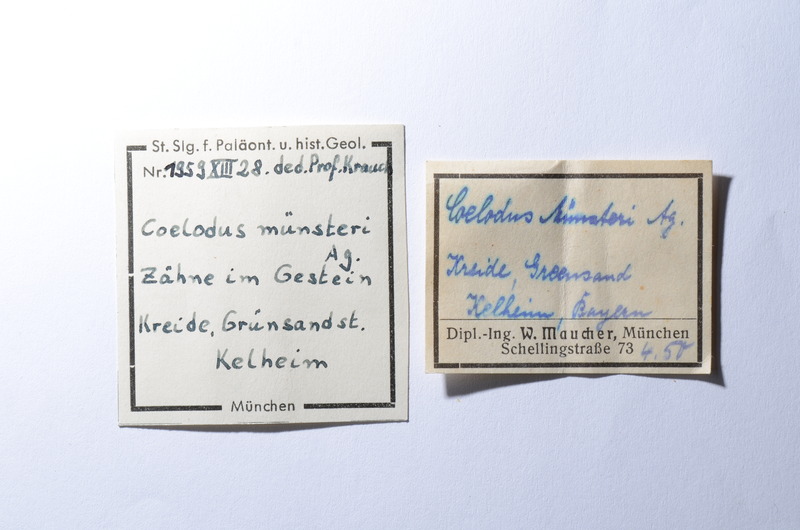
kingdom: Animalia
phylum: Chordata
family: Pycnodontes
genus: Coelodus
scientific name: Coelodus
